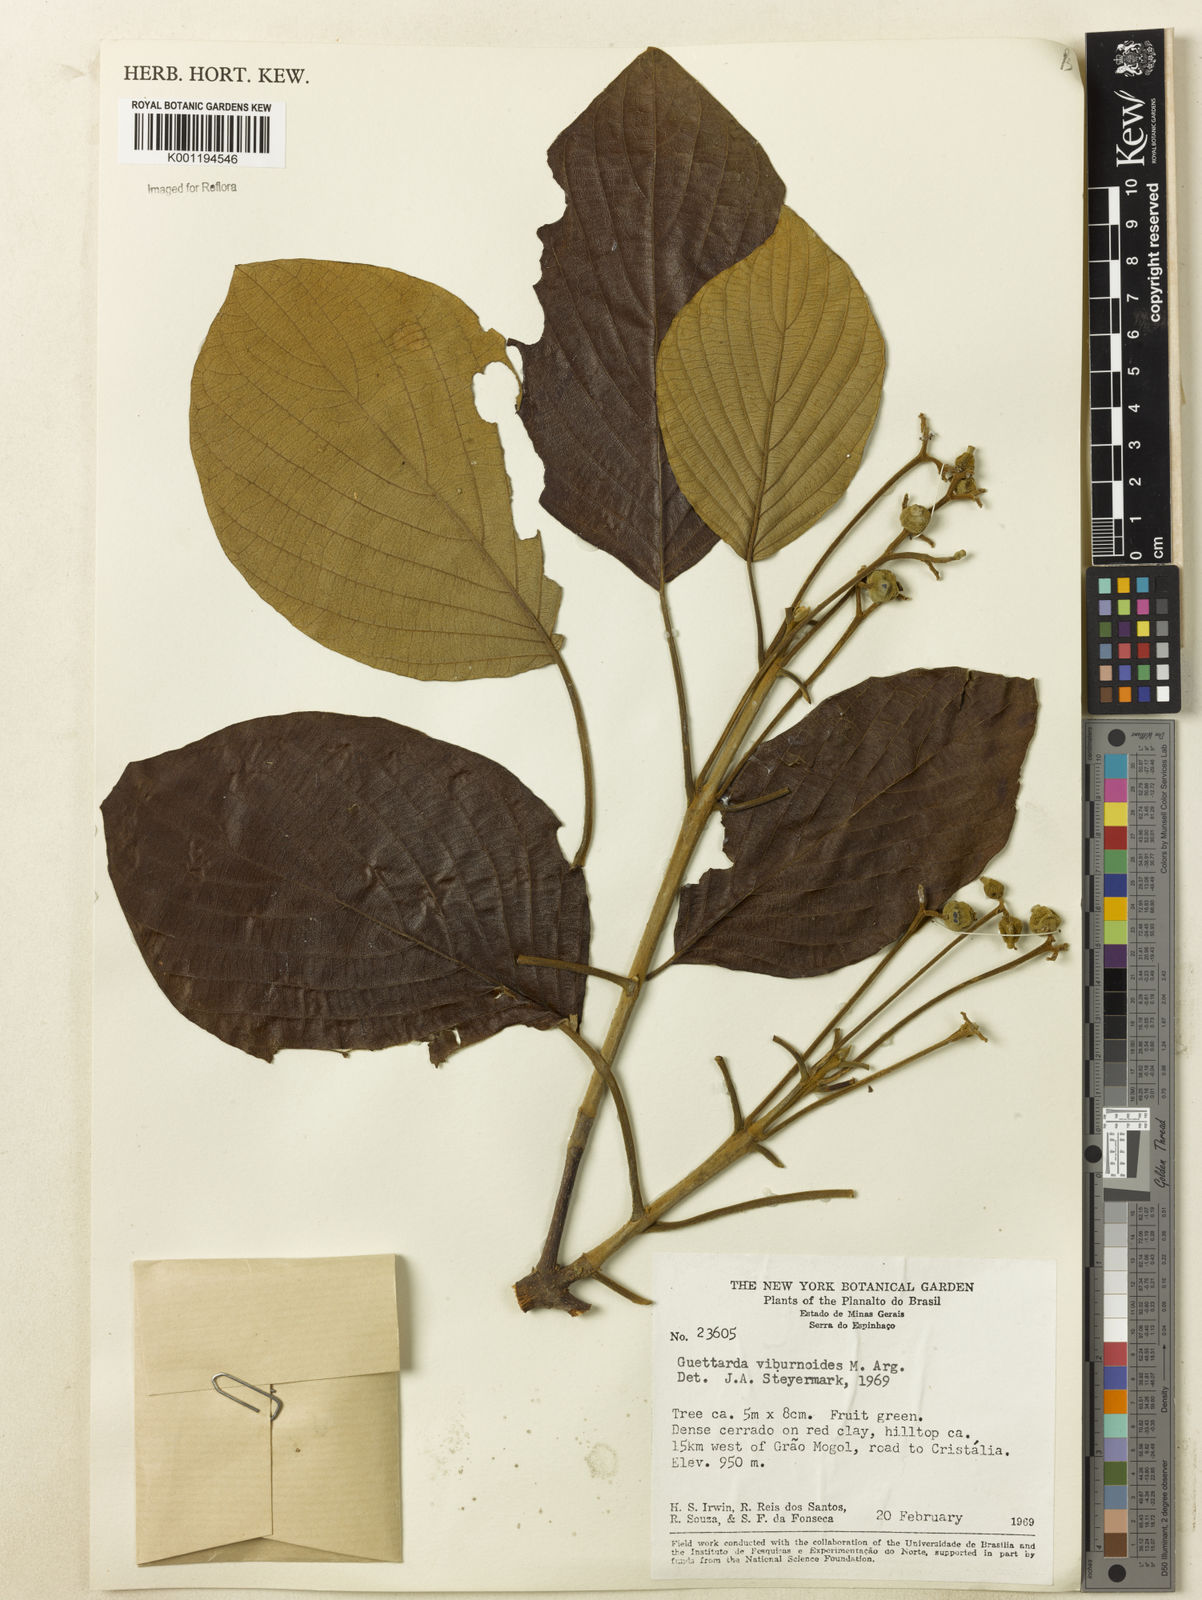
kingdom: Plantae
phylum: Tracheophyta
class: Magnoliopsida
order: Gentianales
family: Rubiaceae
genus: Guettarda
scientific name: Guettarda viburnoides
